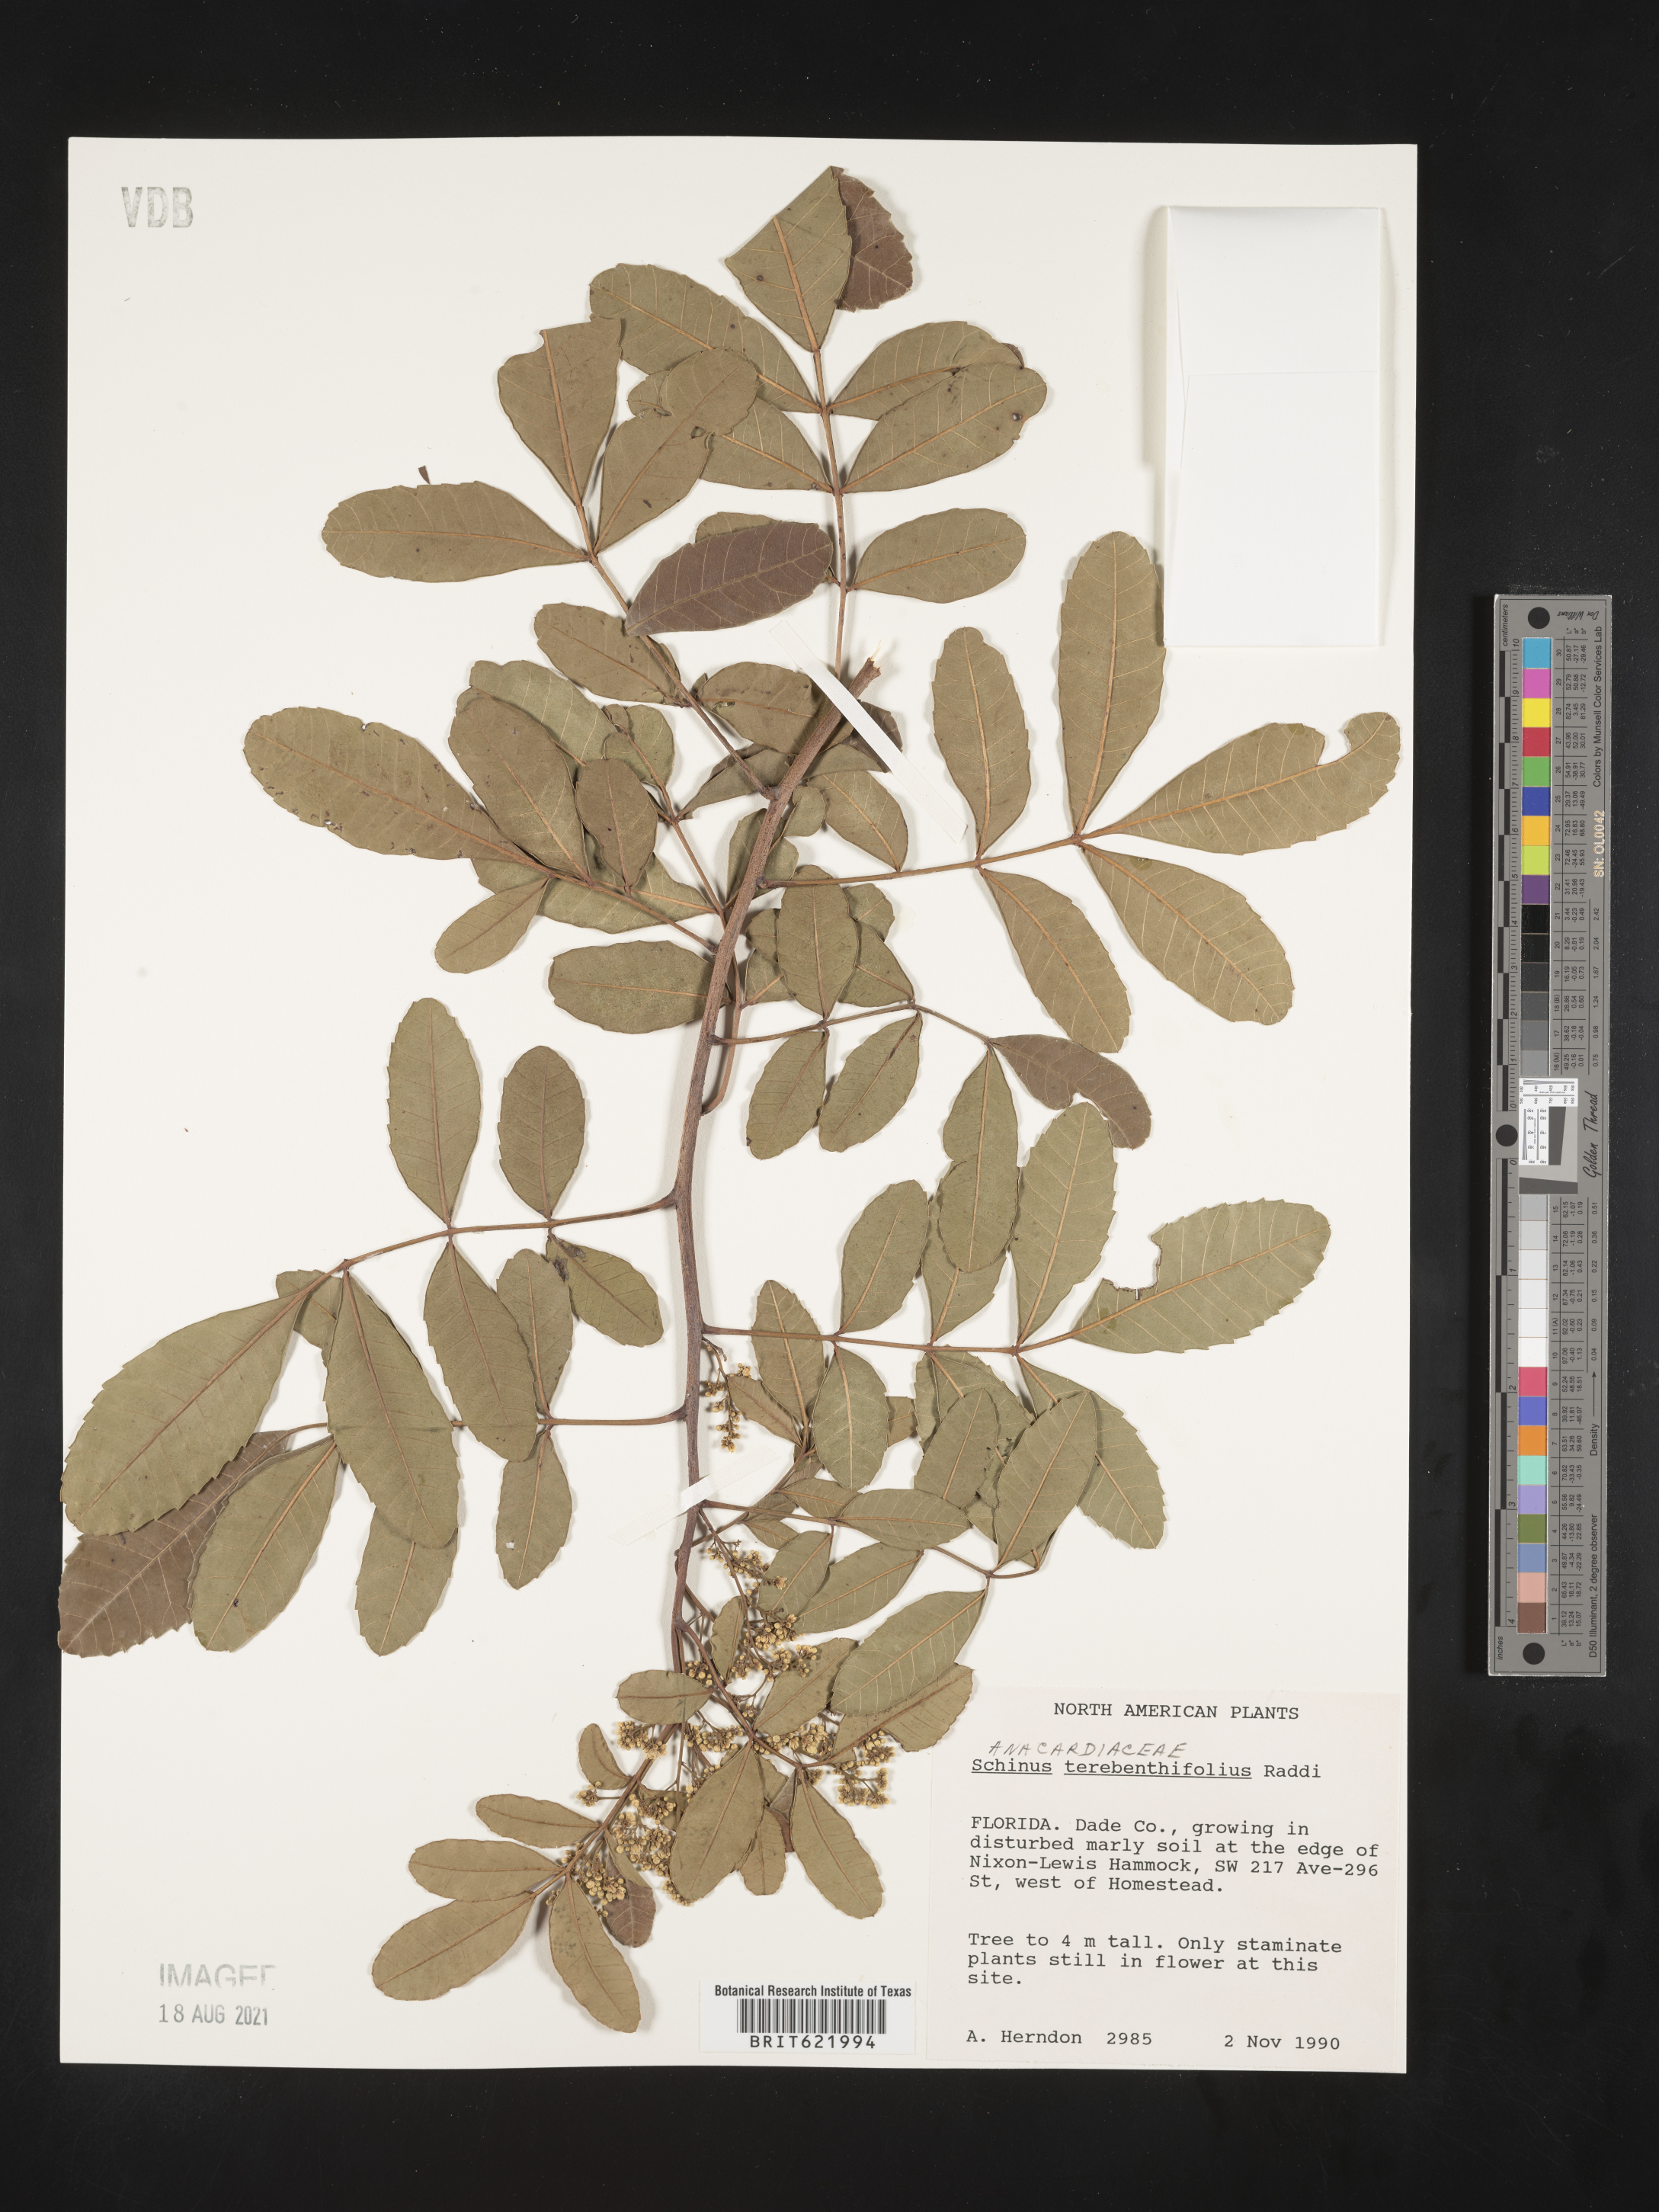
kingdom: Plantae
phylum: Tracheophyta
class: Magnoliopsida
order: Sapindales
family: Anacardiaceae
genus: Schinus
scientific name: Schinus terebinthifolia
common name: Brazilian peppertree
